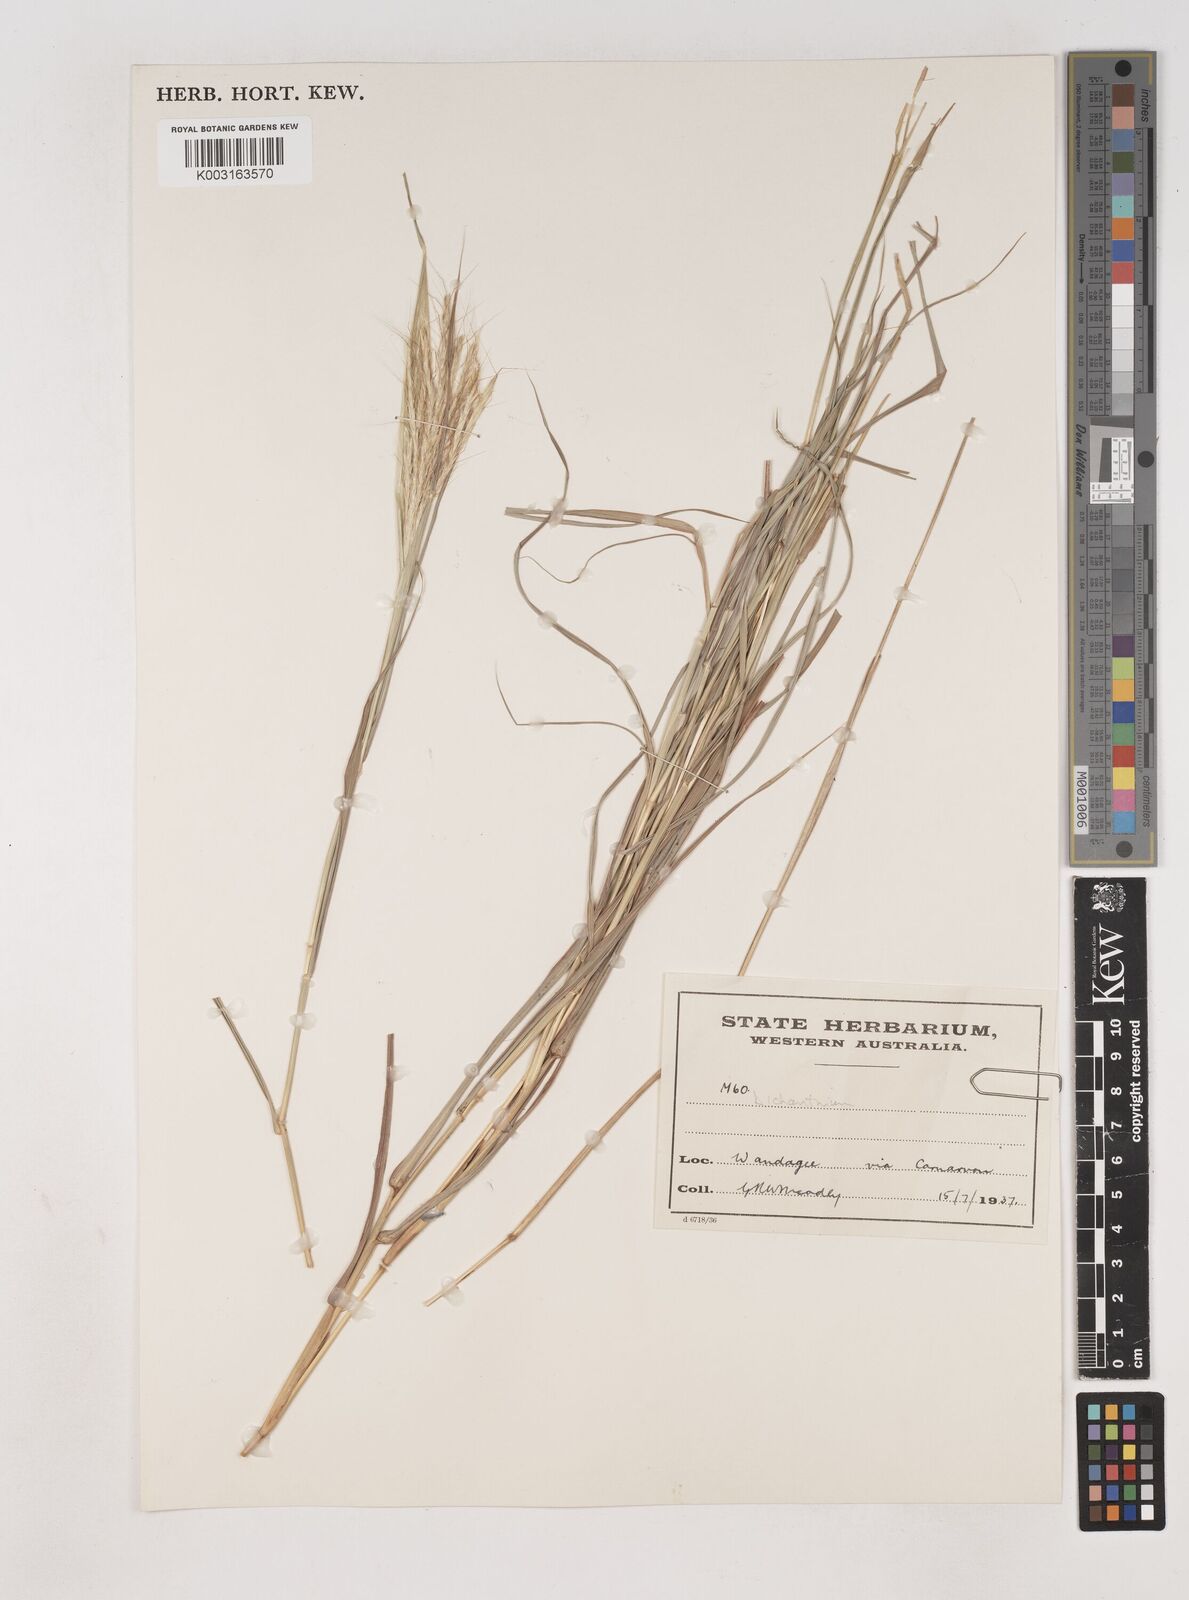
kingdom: Plantae
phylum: Tracheophyta
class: Liliopsida
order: Poales
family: Poaceae
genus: Dichanthium
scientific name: Dichanthium
